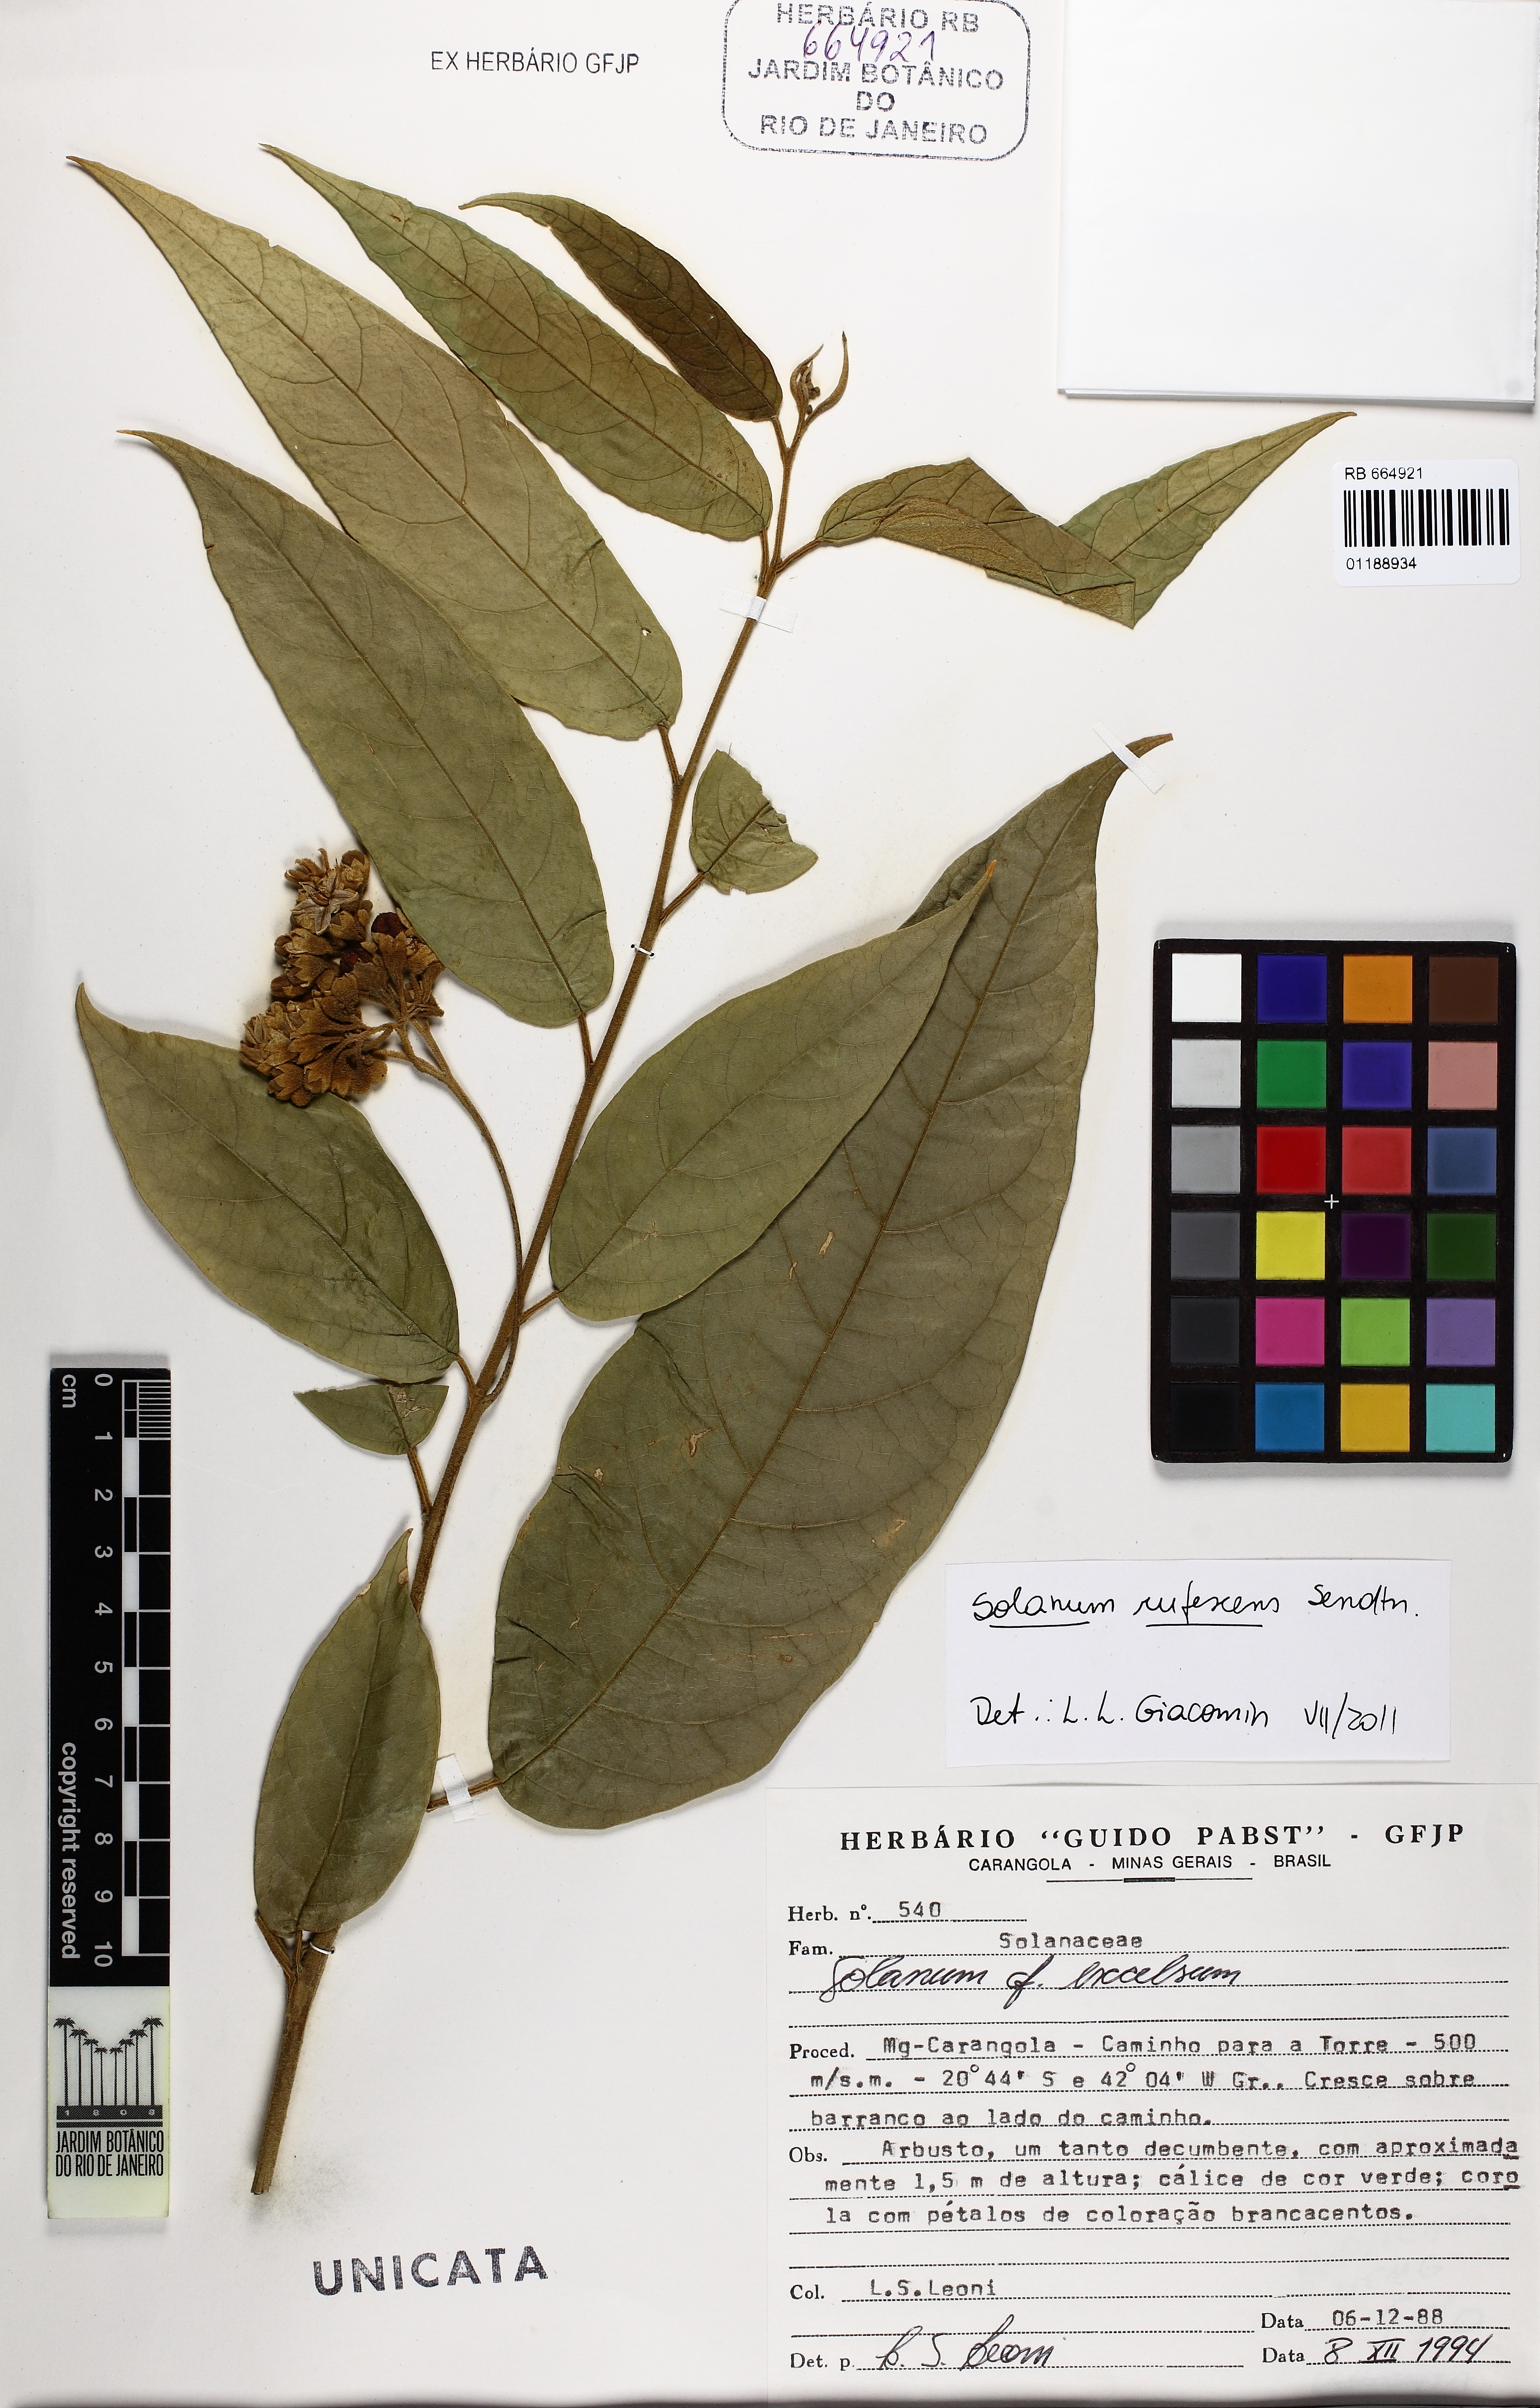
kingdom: Plantae
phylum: Tracheophyta
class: Magnoliopsida
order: Solanales
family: Solanaceae
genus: Solanum
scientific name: Solanum rufescens
